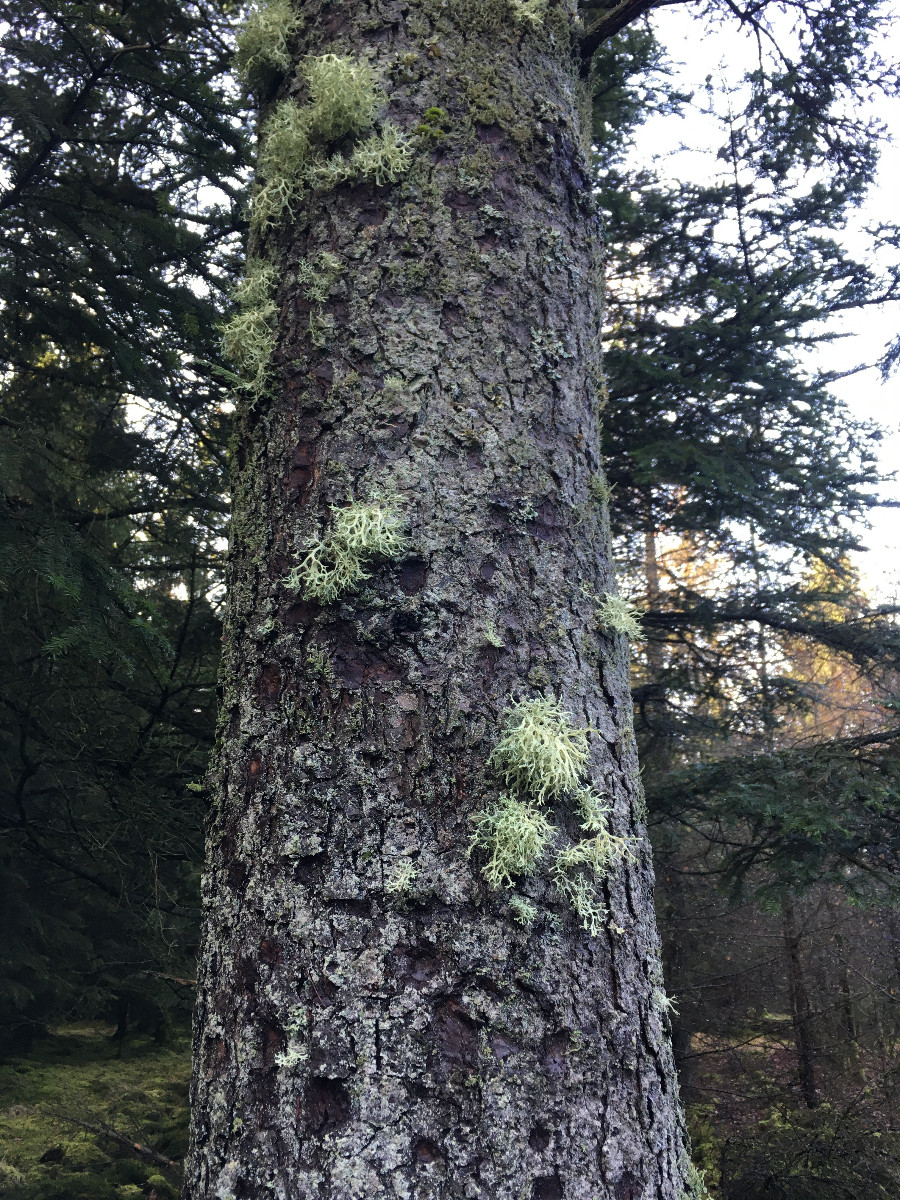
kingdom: Fungi
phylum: Ascomycota
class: Lecanoromycetes
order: Lecanorales
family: Parmeliaceae
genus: Evernia
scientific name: Evernia prunastri
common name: almindelig slåenlav
